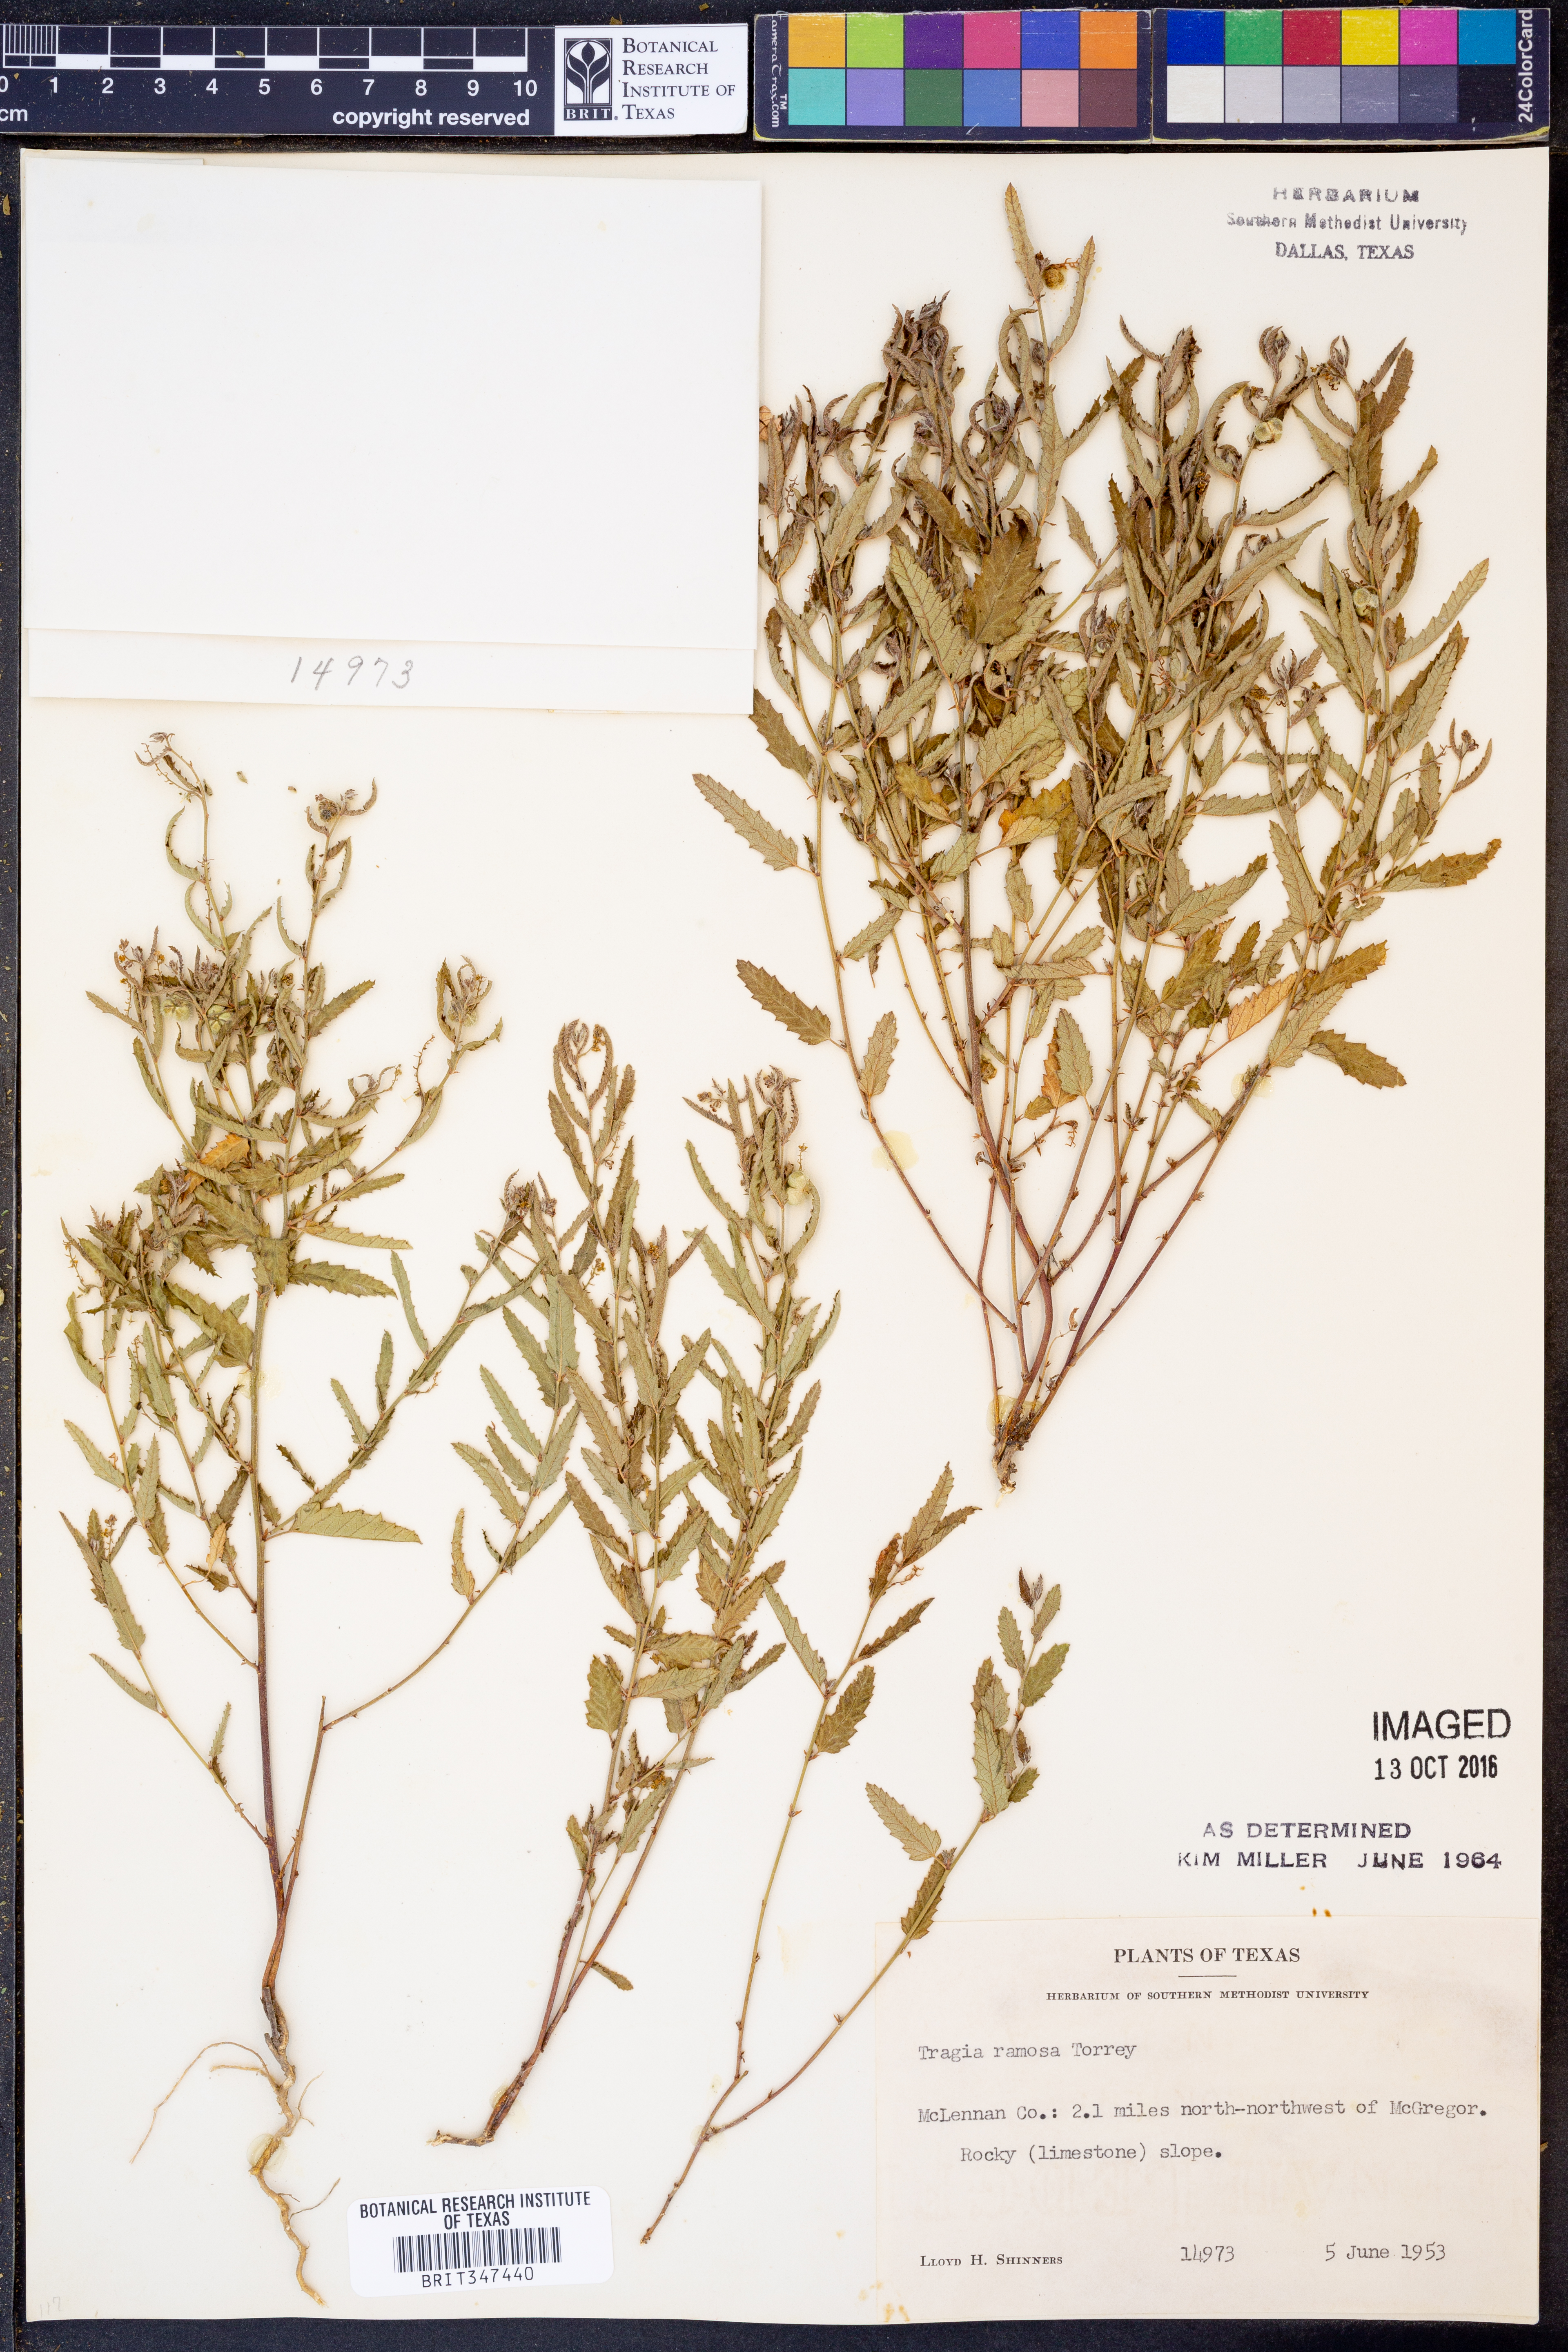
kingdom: Plantae
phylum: Tracheophyta
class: Magnoliopsida
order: Malpighiales
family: Euphorbiaceae
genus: Tragia
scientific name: Tragia ramosa
